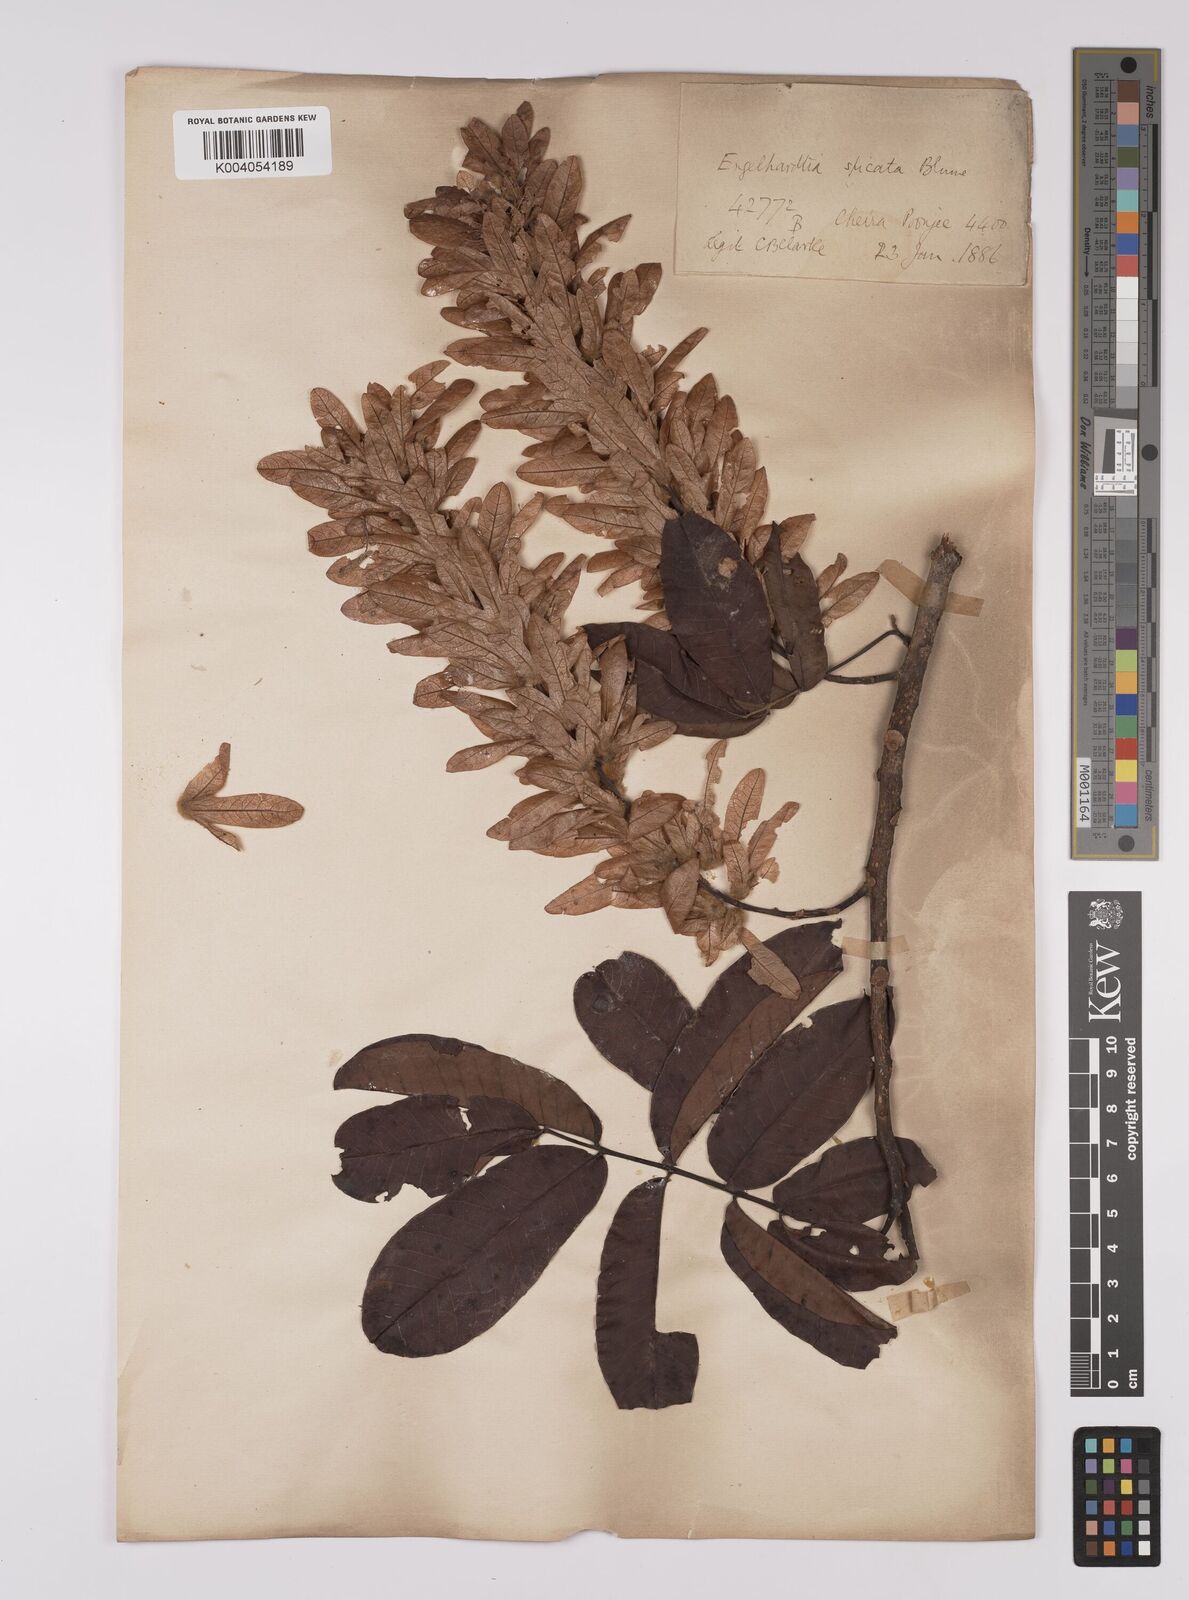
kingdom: Plantae
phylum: Tracheophyta
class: Magnoliopsida
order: Fagales
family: Juglandaceae
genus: Engelhardia
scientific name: Engelhardia spicata
